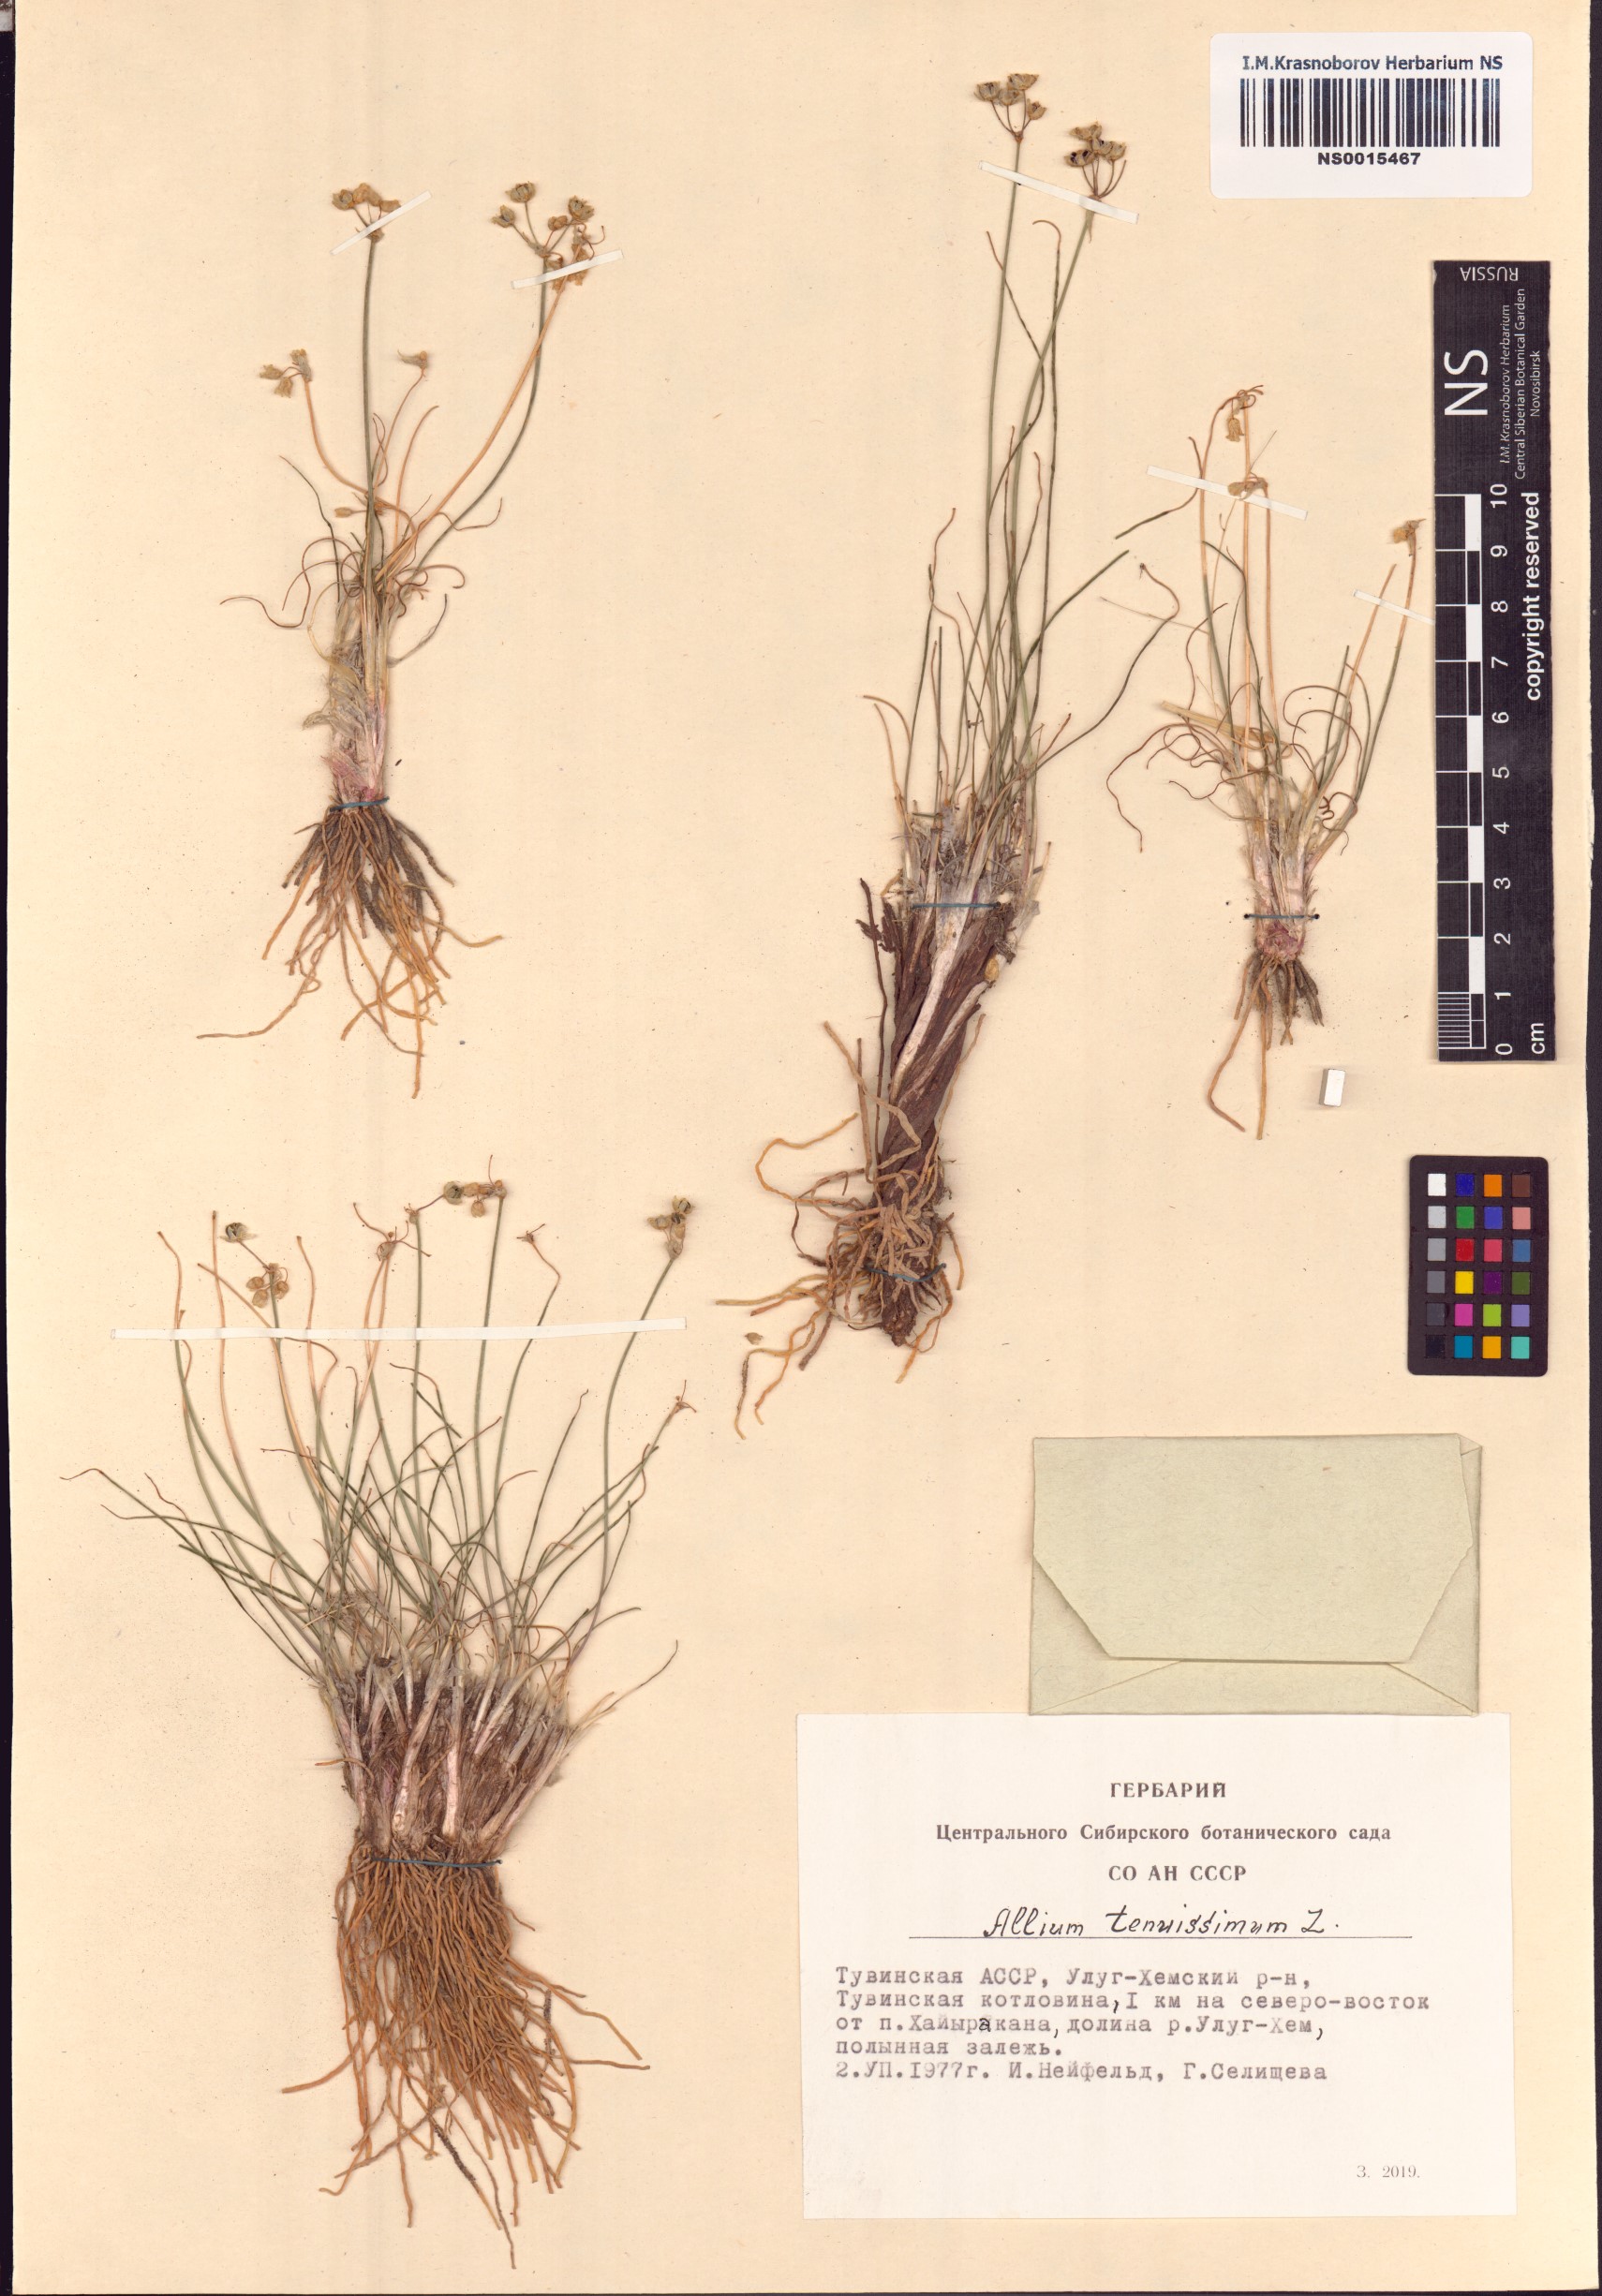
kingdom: Plantae
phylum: Tracheophyta
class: Liliopsida
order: Asparagales
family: Amaryllidaceae
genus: Allium
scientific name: Allium tenuissimum
